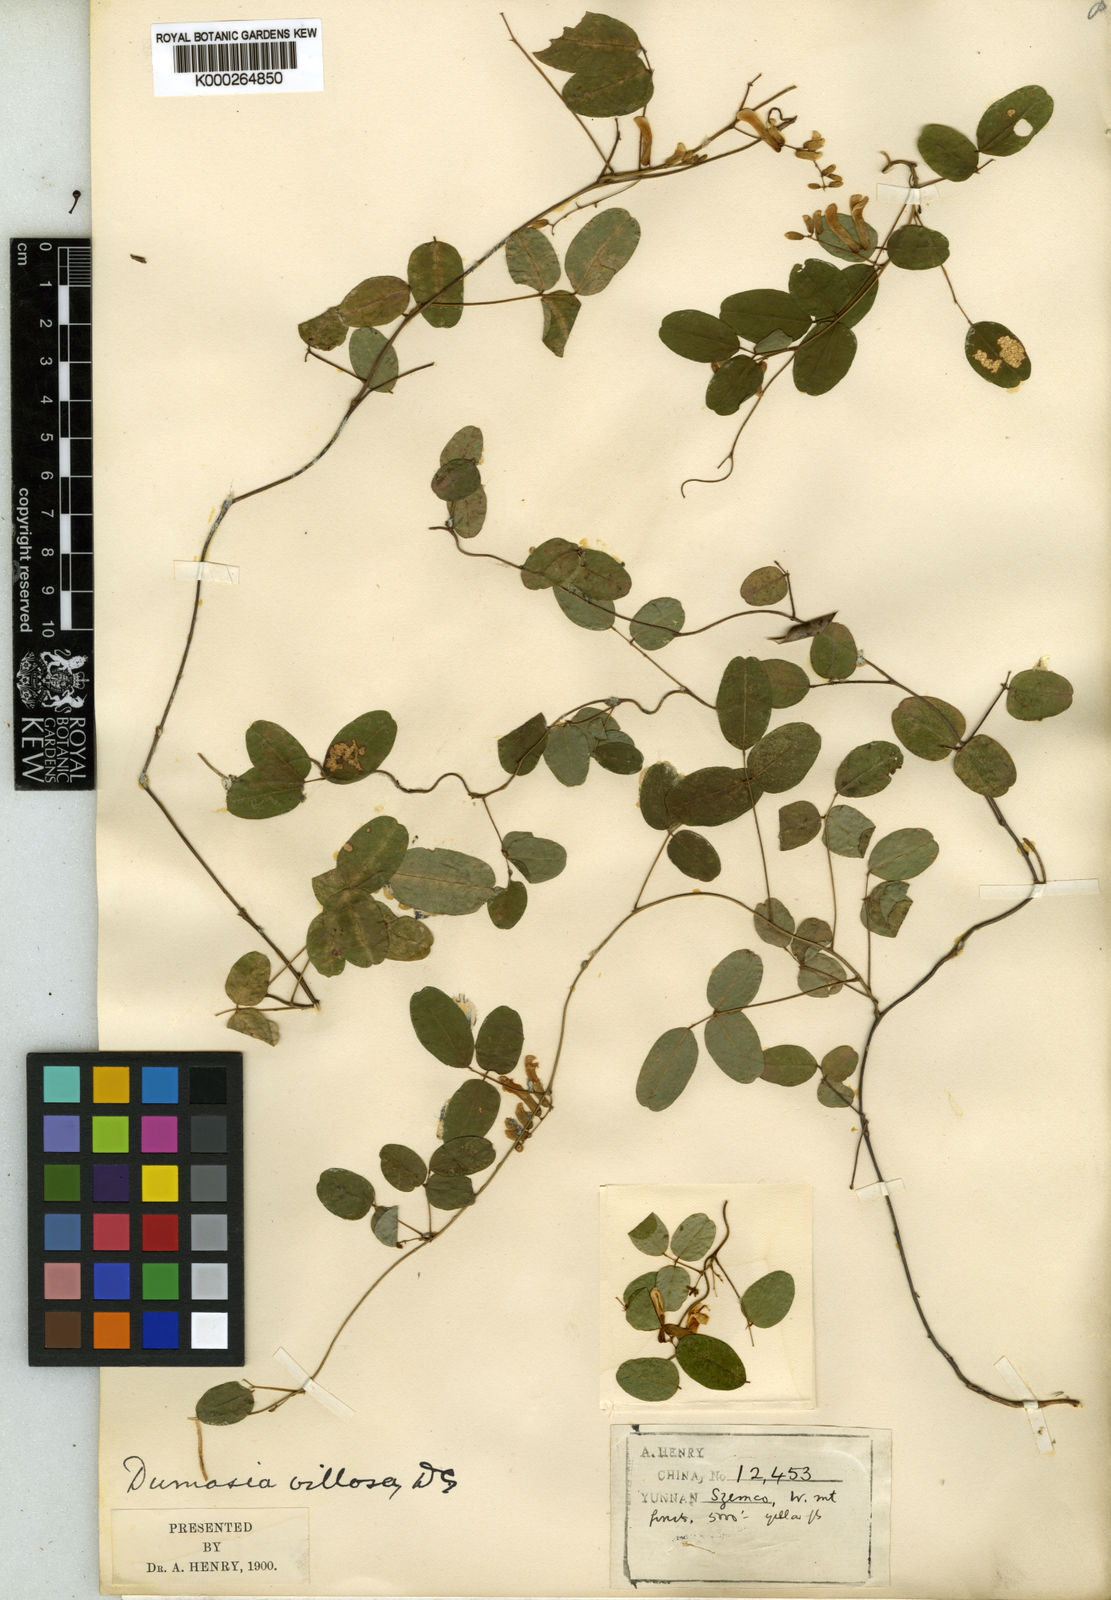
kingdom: Plantae
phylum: Tracheophyta
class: Magnoliopsida
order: Fabales
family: Fabaceae
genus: Dumasia
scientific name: Dumasia villosa
